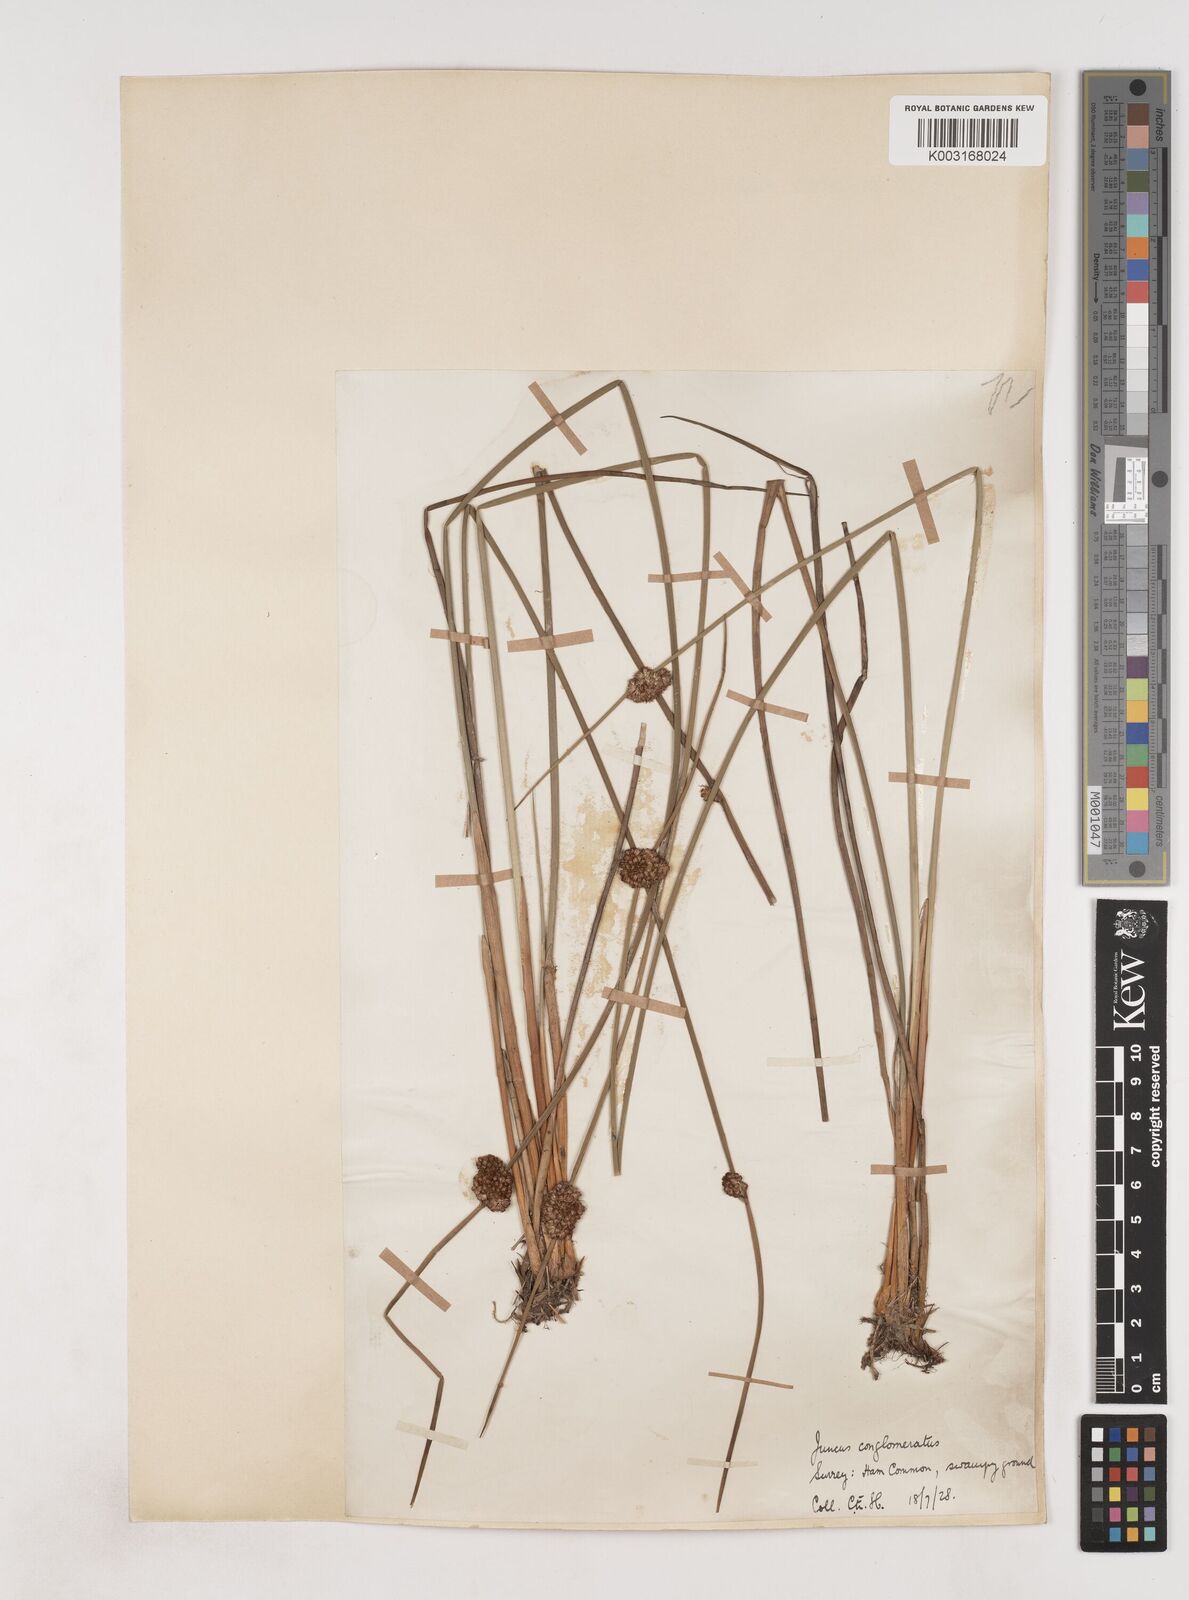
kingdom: Plantae
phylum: Tracheophyta
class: Liliopsida
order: Poales
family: Juncaceae
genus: Juncus
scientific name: Juncus conglomeratus
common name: Compact rush
